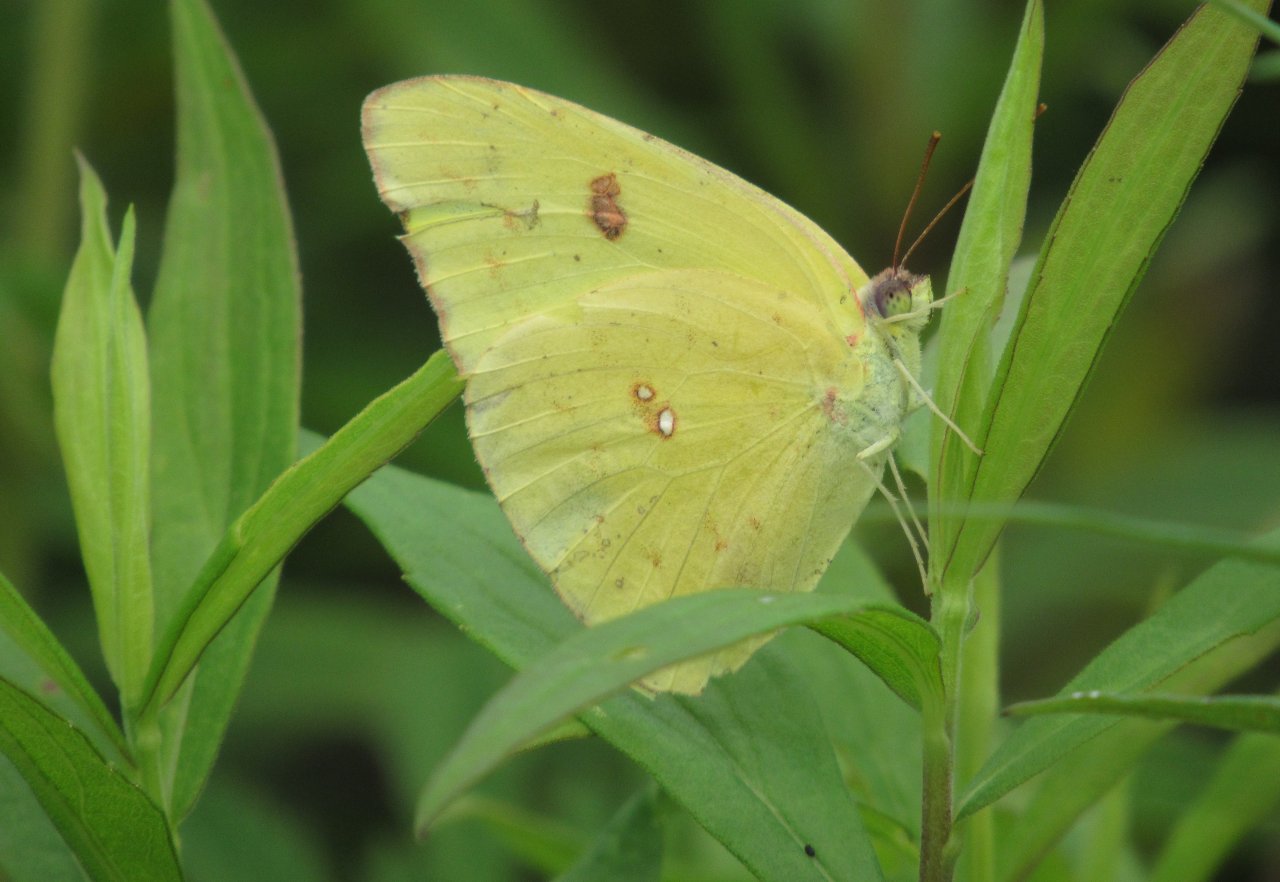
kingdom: Animalia
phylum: Arthropoda
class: Insecta
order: Lepidoptera
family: Pieridae
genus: Phoebis
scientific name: Phoebis sennae
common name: Cloudless Sulphur
